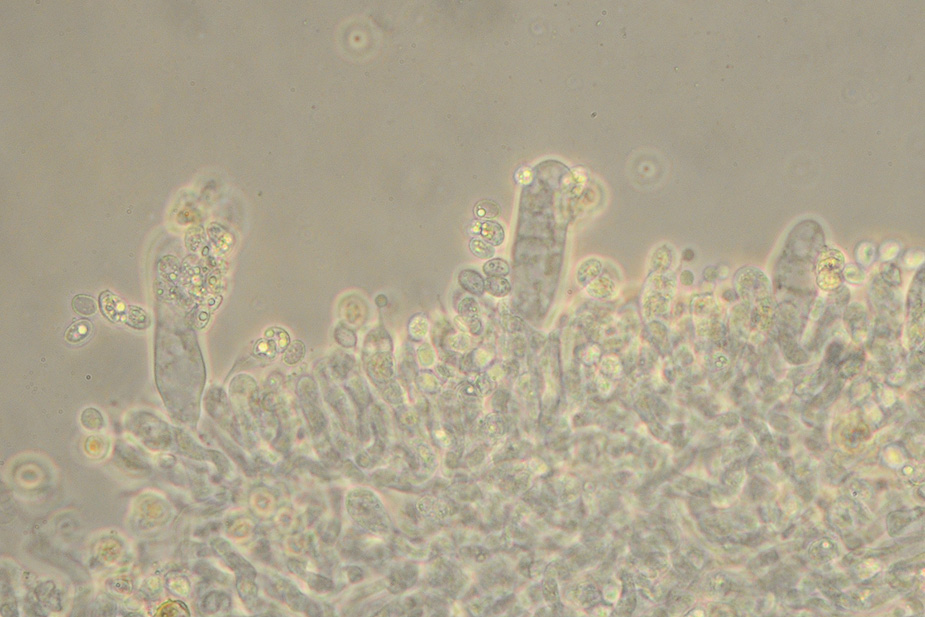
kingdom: Fungi
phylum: Basidiomycota
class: Agaricomycetes
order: Agaricales
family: Tricholomataceae
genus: Gamundia
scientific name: Gamundia xerophila
